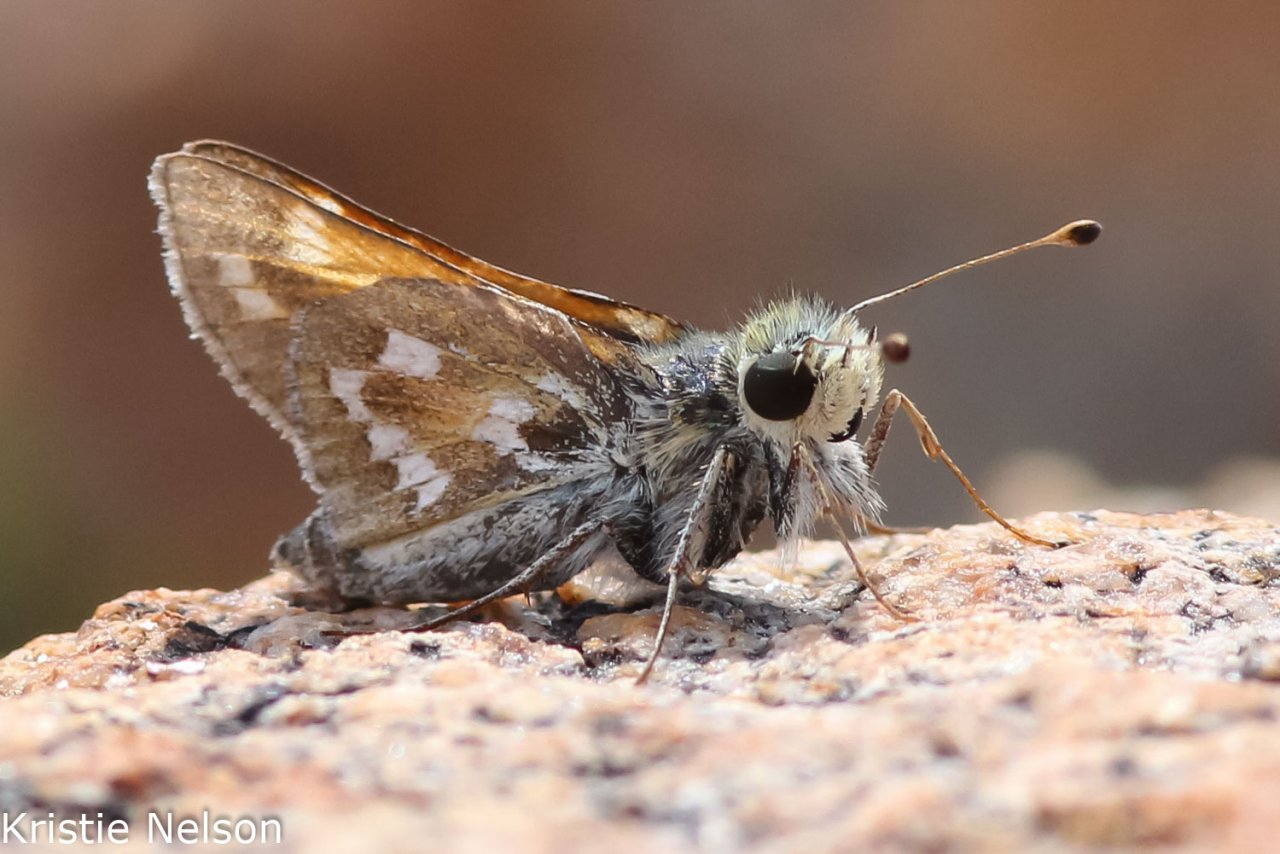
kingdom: Animalia
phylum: Arthropoda
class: Insecta
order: Lepidoptera
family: Hesperiidae
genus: Hesperia
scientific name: Hesperia comma
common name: Western Branded Skipper
